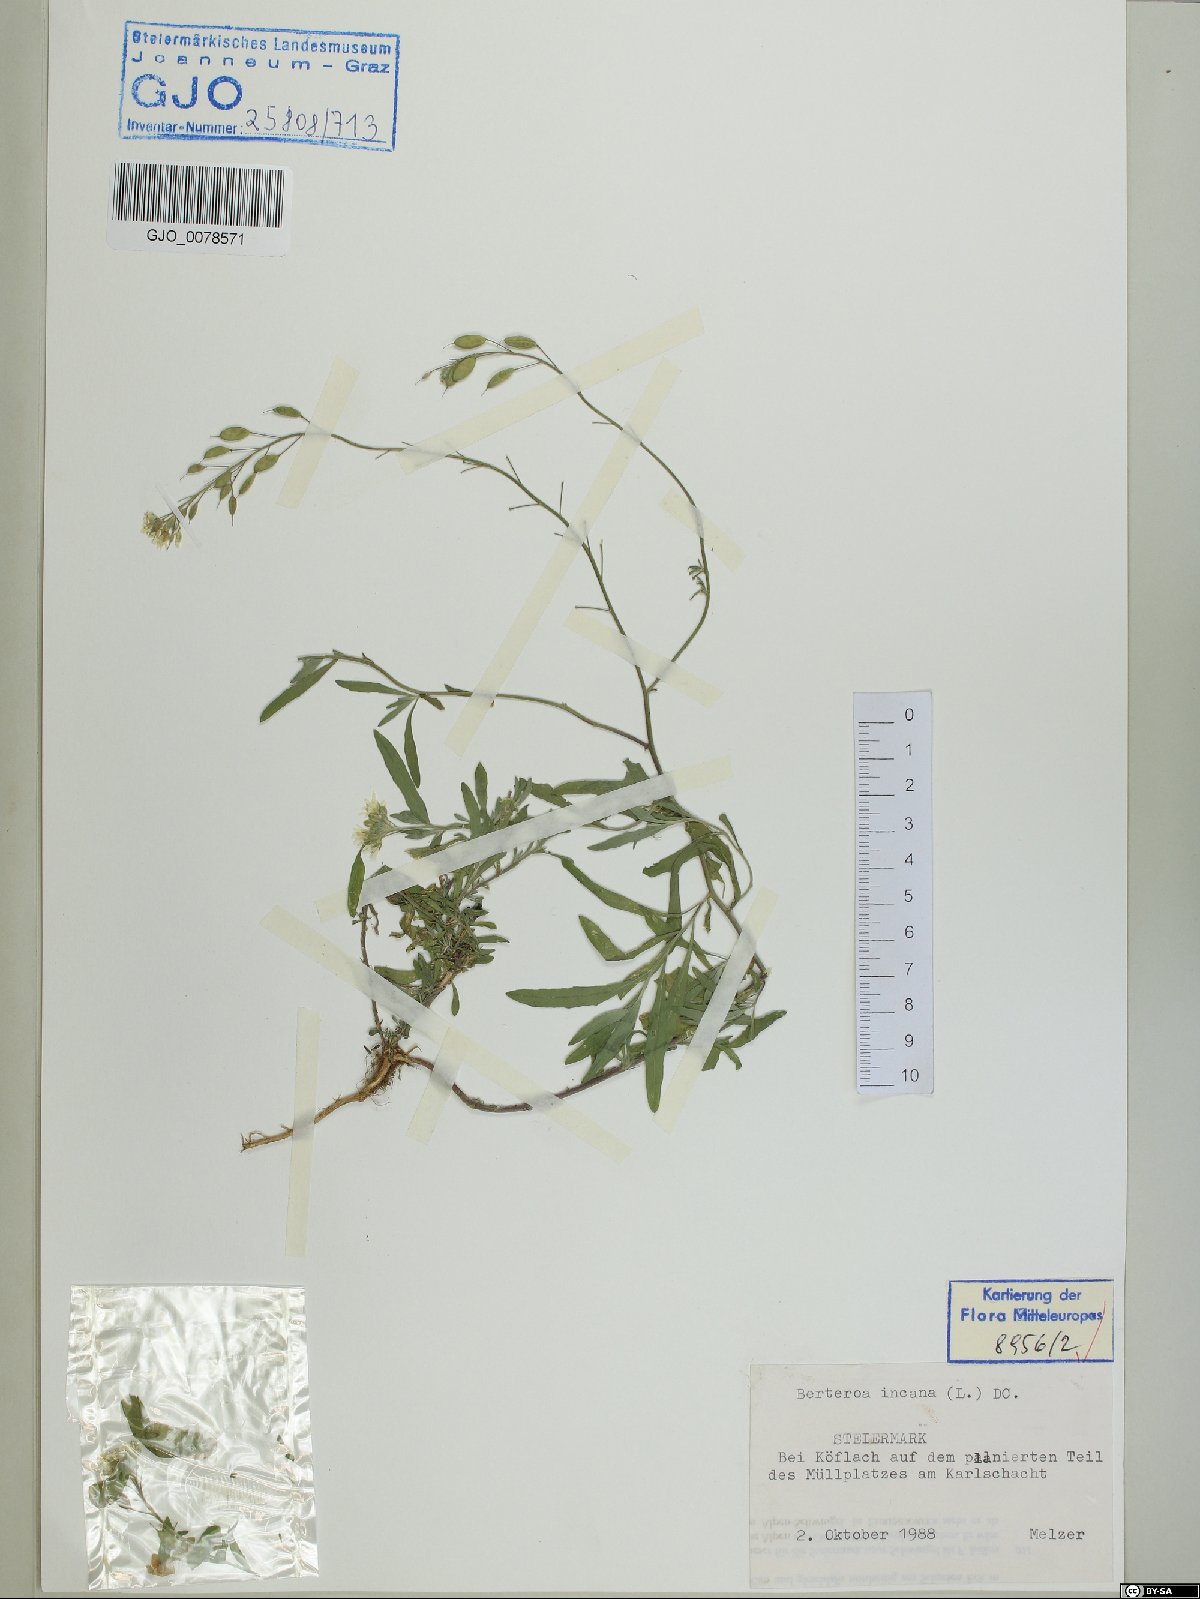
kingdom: Plantae
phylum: Tracheophyta
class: Magnoliopsida
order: Brassicales
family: Brassicaceae
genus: Berteroa
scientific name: Berteroa incana
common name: Hoary alison
